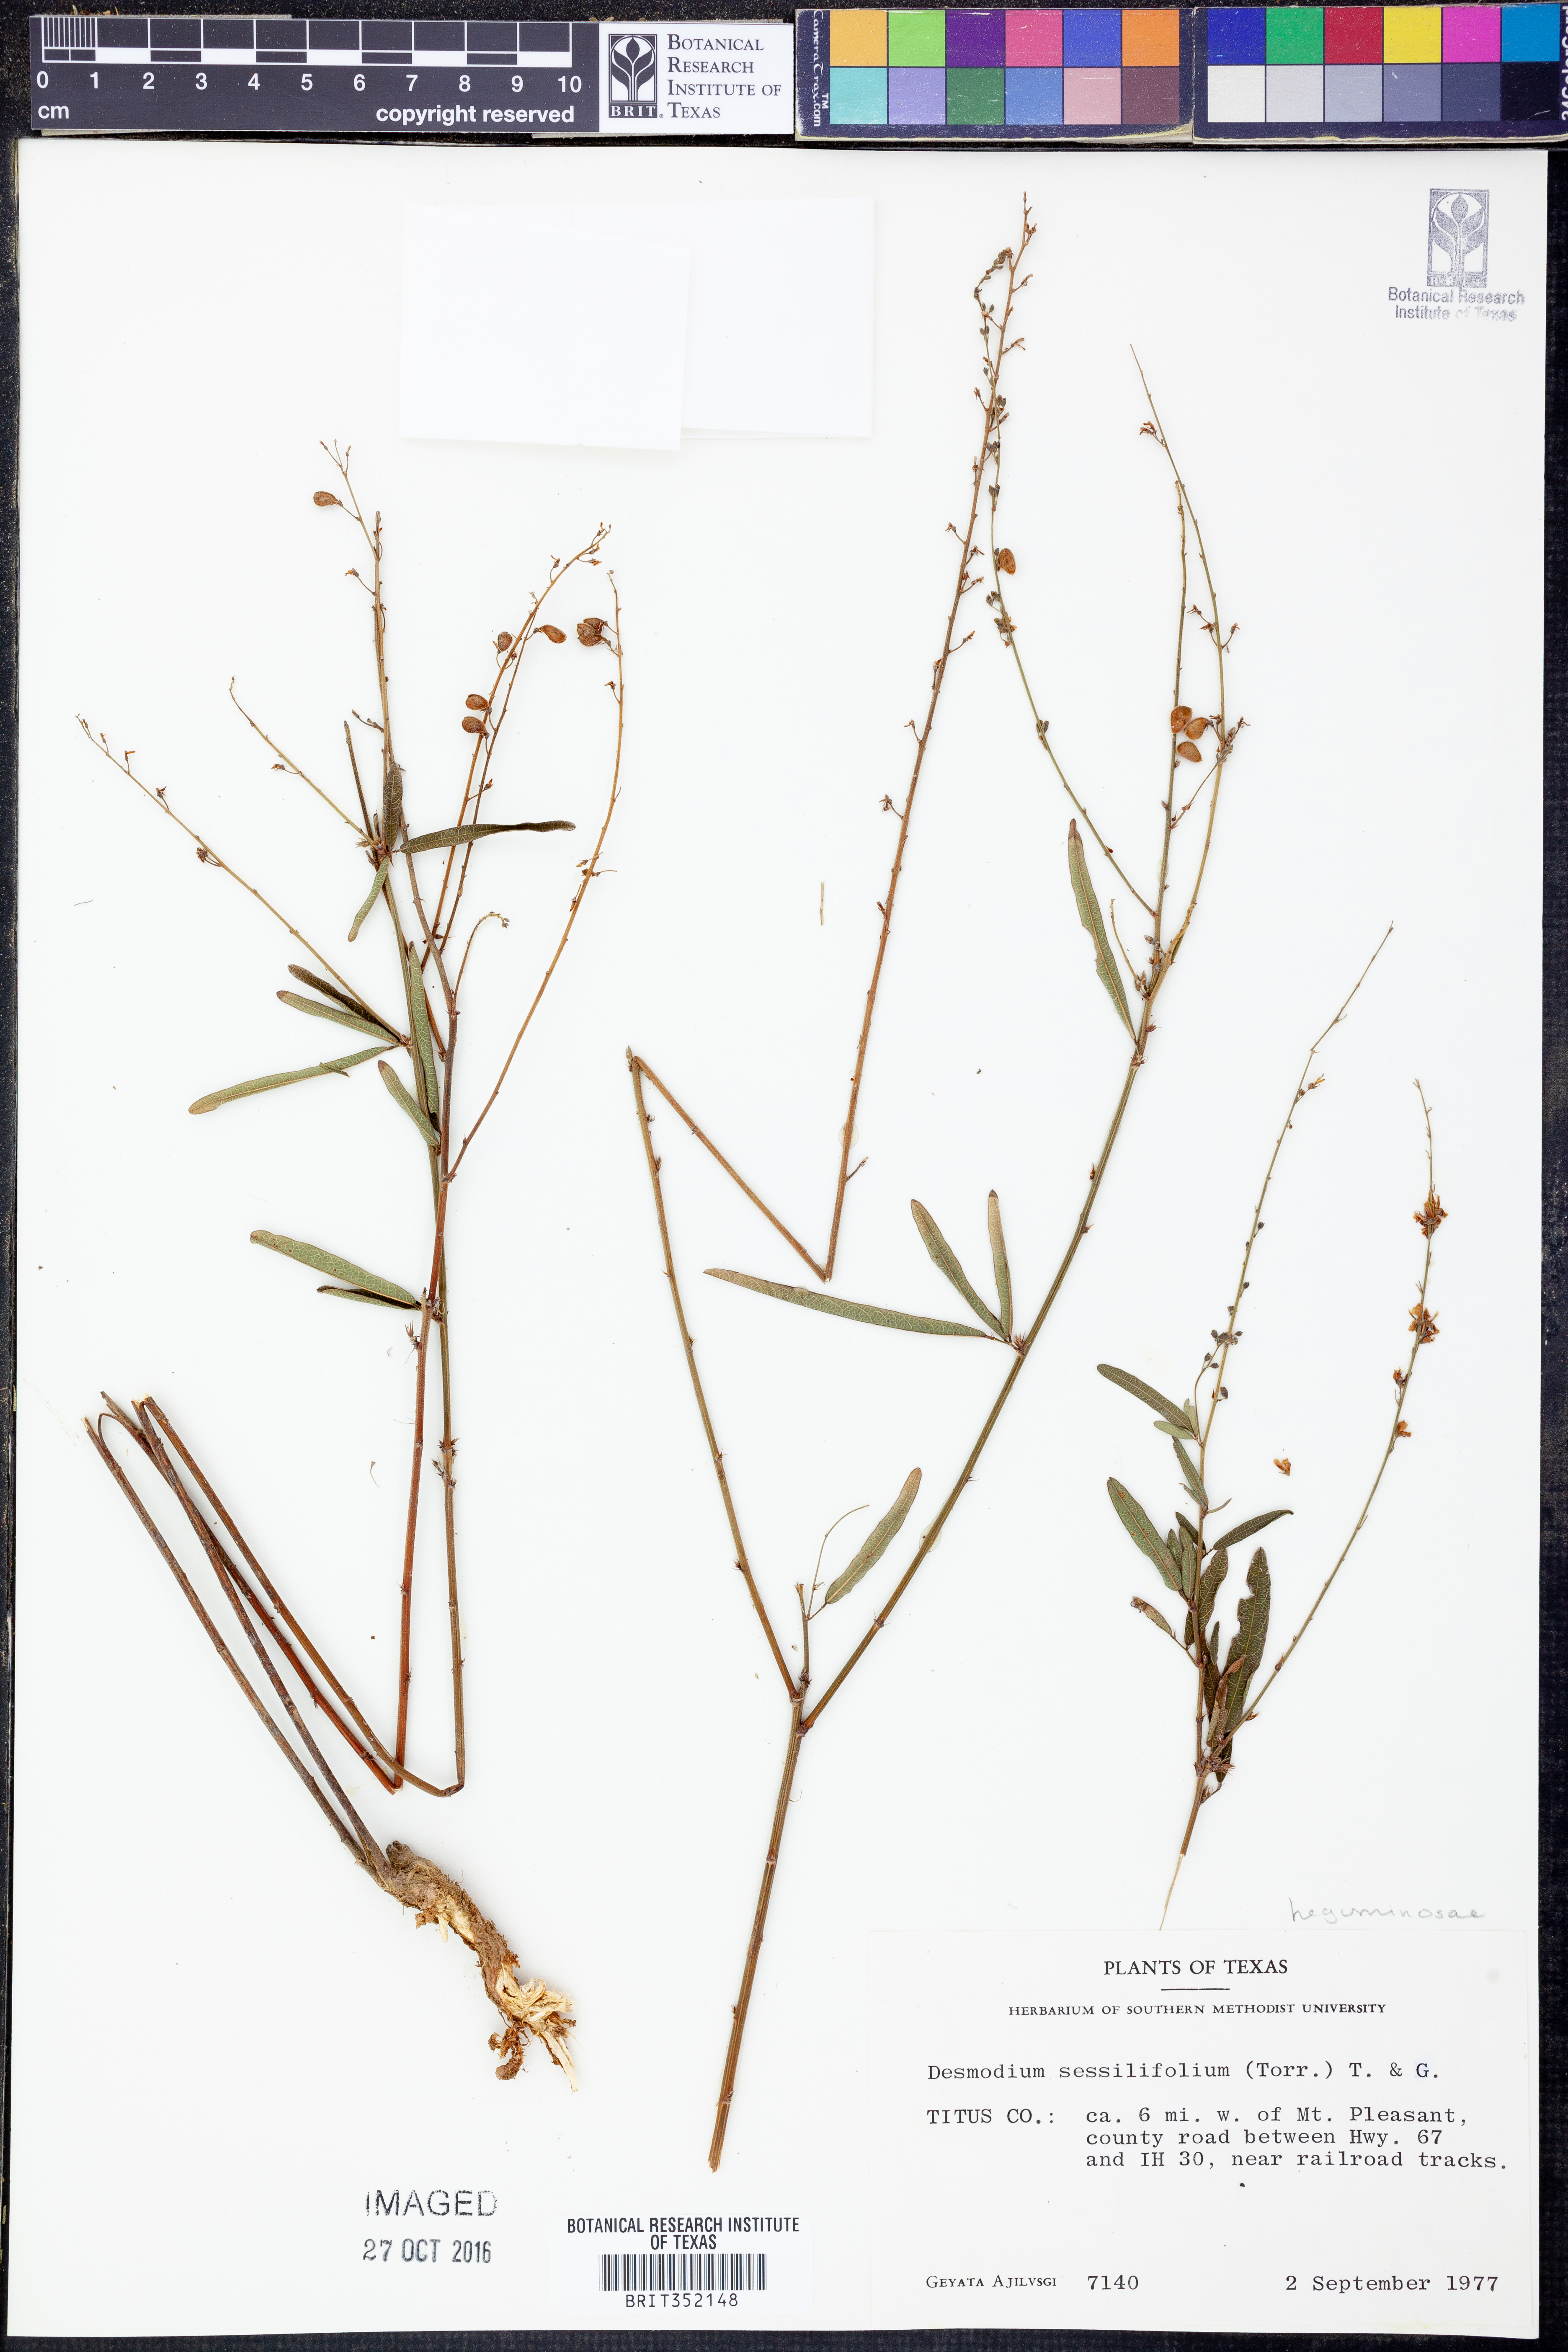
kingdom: Plantae
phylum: Tracheophyta
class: Magnoliopsida
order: Fabales
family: Fabaceae
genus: Desmodium
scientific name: Desmodium sessilifolium
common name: Sessile tick-clover
